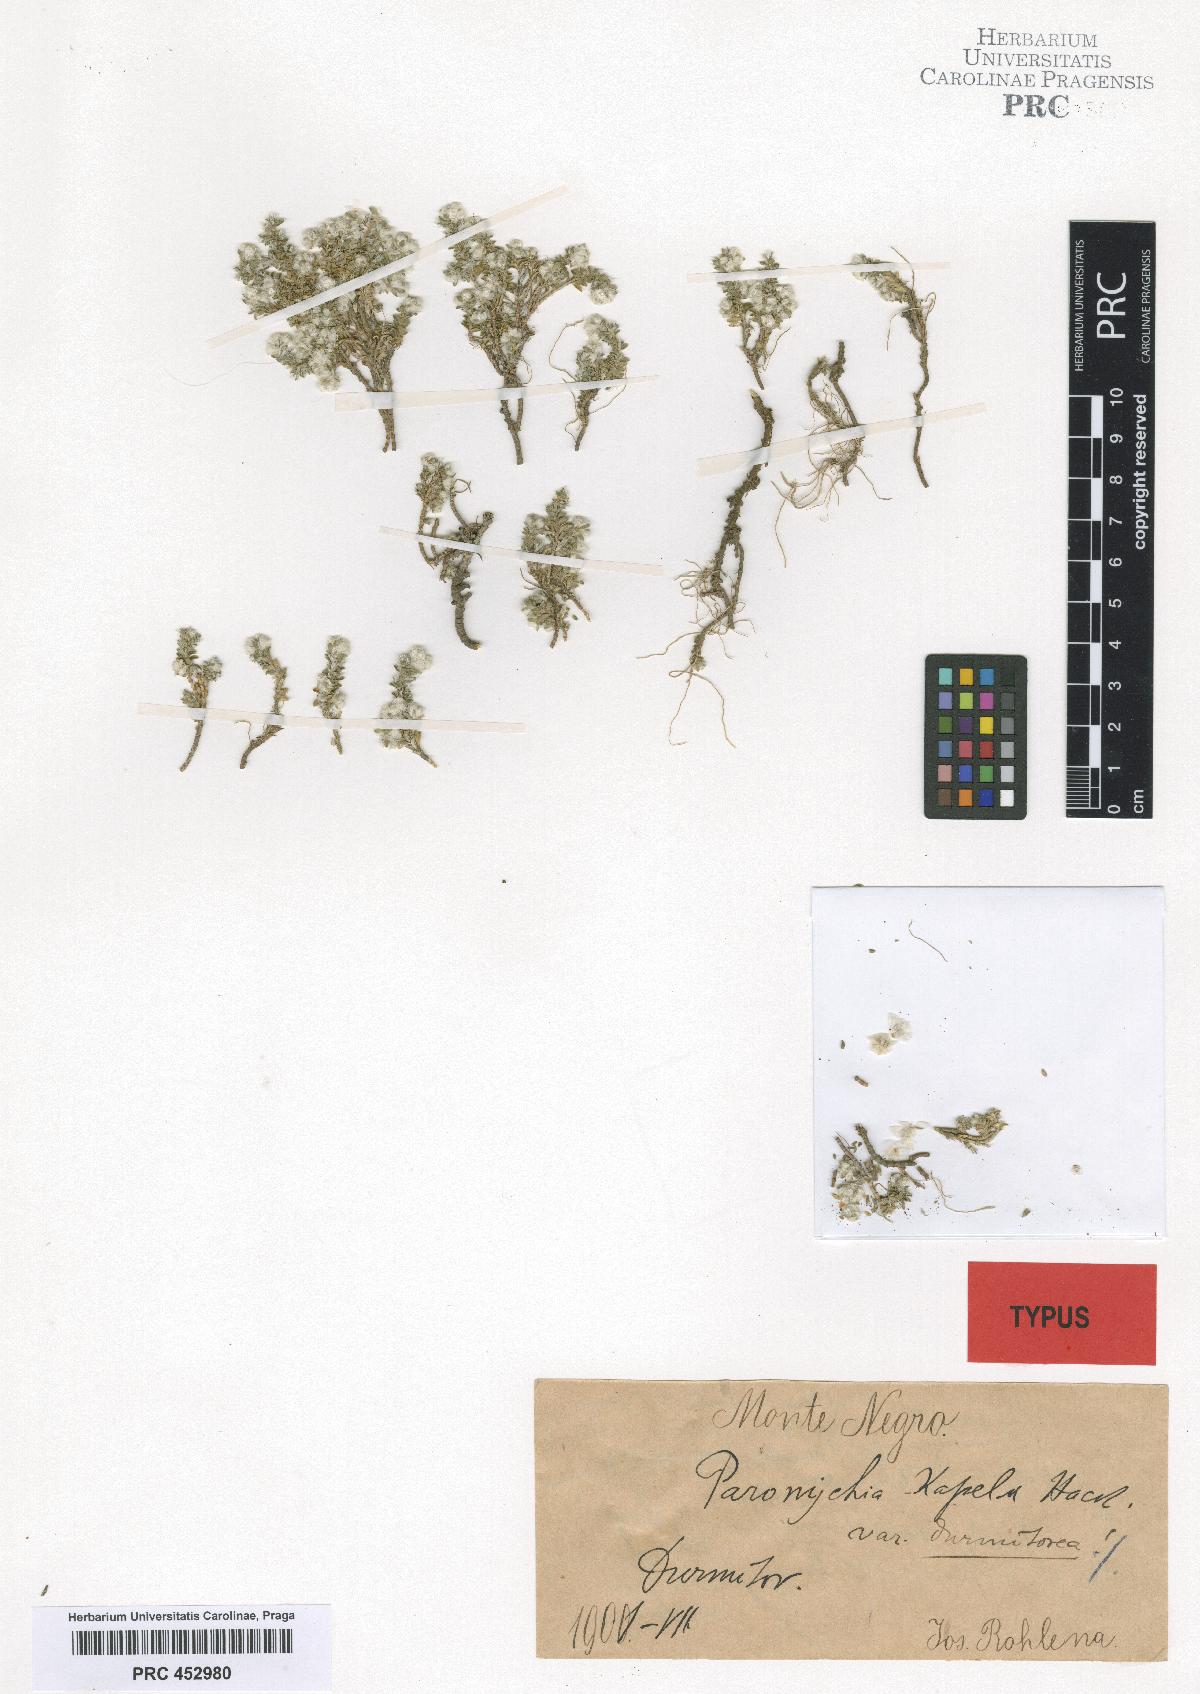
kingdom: Plantae
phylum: Tracheophyta
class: Magnoliopsida
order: Caryophyllales
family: Caryophyllaceae
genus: Paronychia
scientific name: Paronychia kapela
